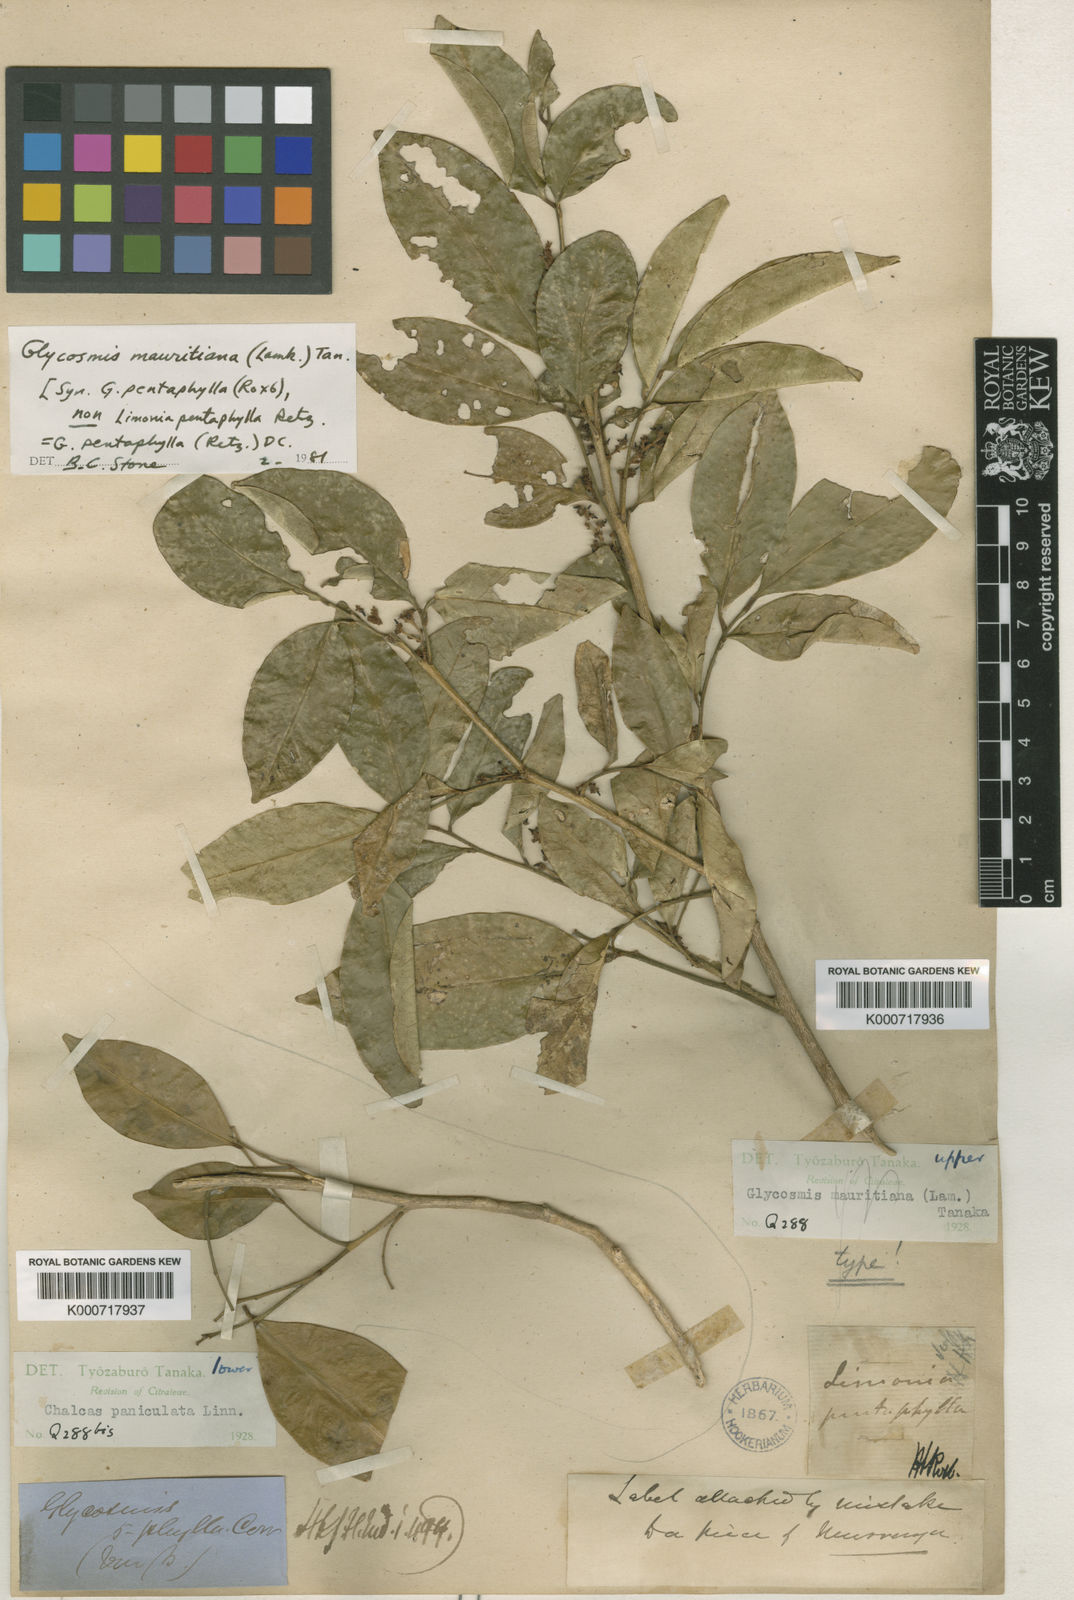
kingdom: Plantae
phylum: Tracheophyta
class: Magnoliopsida
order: Sapindales
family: Rutaceae
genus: Glycosmis
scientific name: Glycosmis mauritiana
